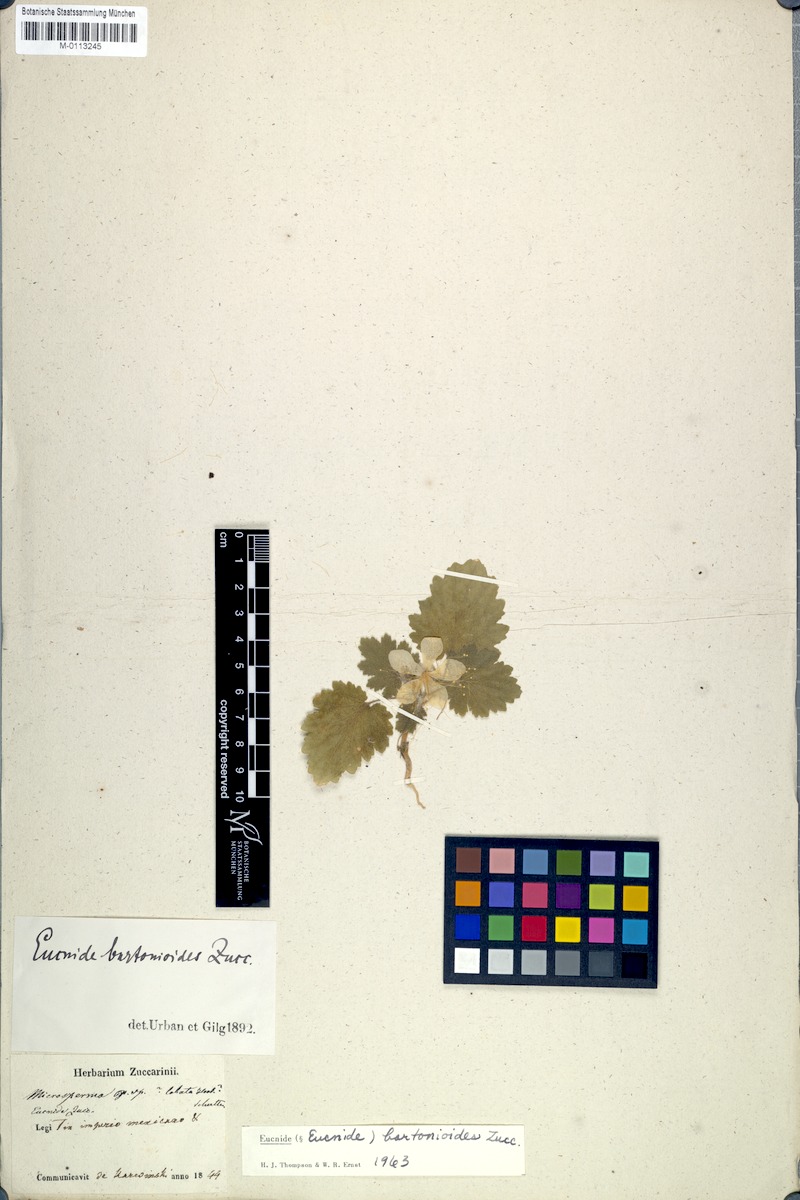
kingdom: Plantae
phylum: Tracheophyta
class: Magnoliopsida
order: Cornales
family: Loasaceae
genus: Eucnide
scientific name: Eucnide bartonioides
